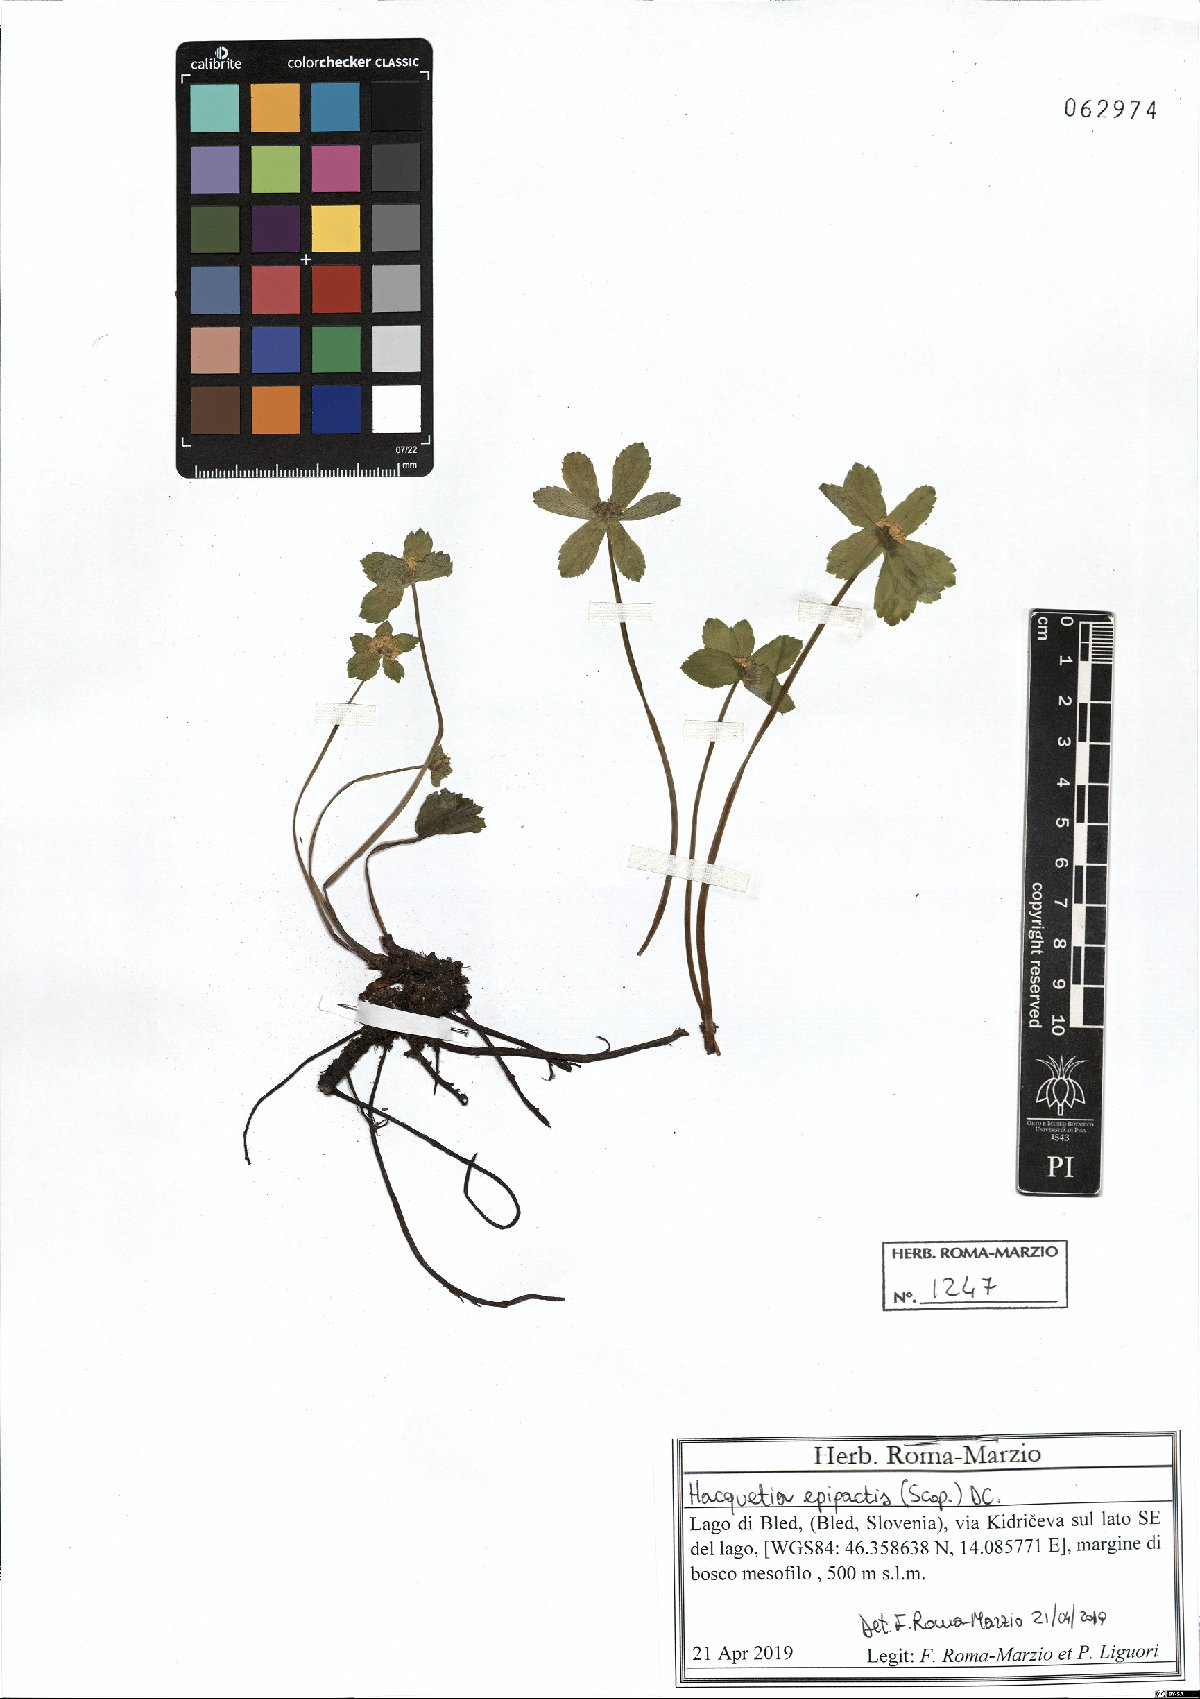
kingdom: Plantae
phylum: Tracheophyta
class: Magnoliopsida
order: Apiales
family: Apiaceae
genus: Sanicula
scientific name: Sanicula epipactis
